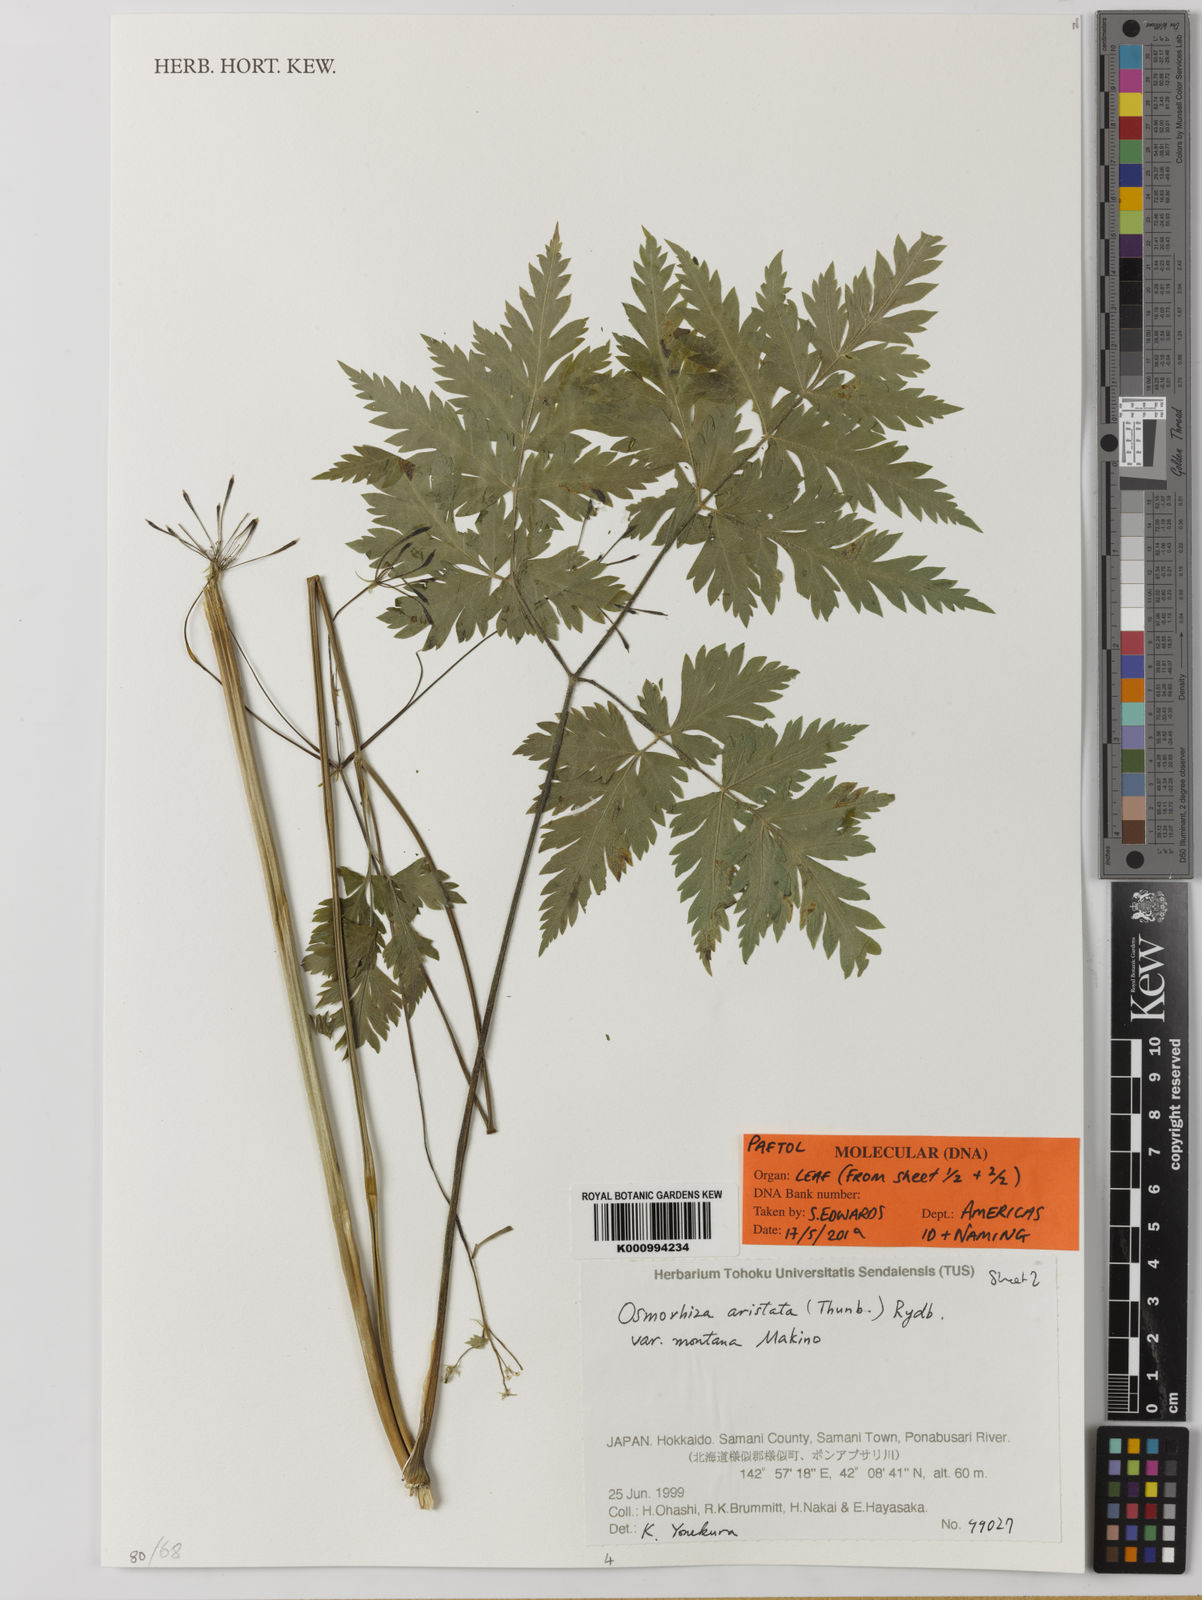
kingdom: Plantae
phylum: Tracheophyta
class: Magnoliopsida
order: Apiales
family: Apiaceae
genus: Osmorhiza
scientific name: Osmorhiza aristata
